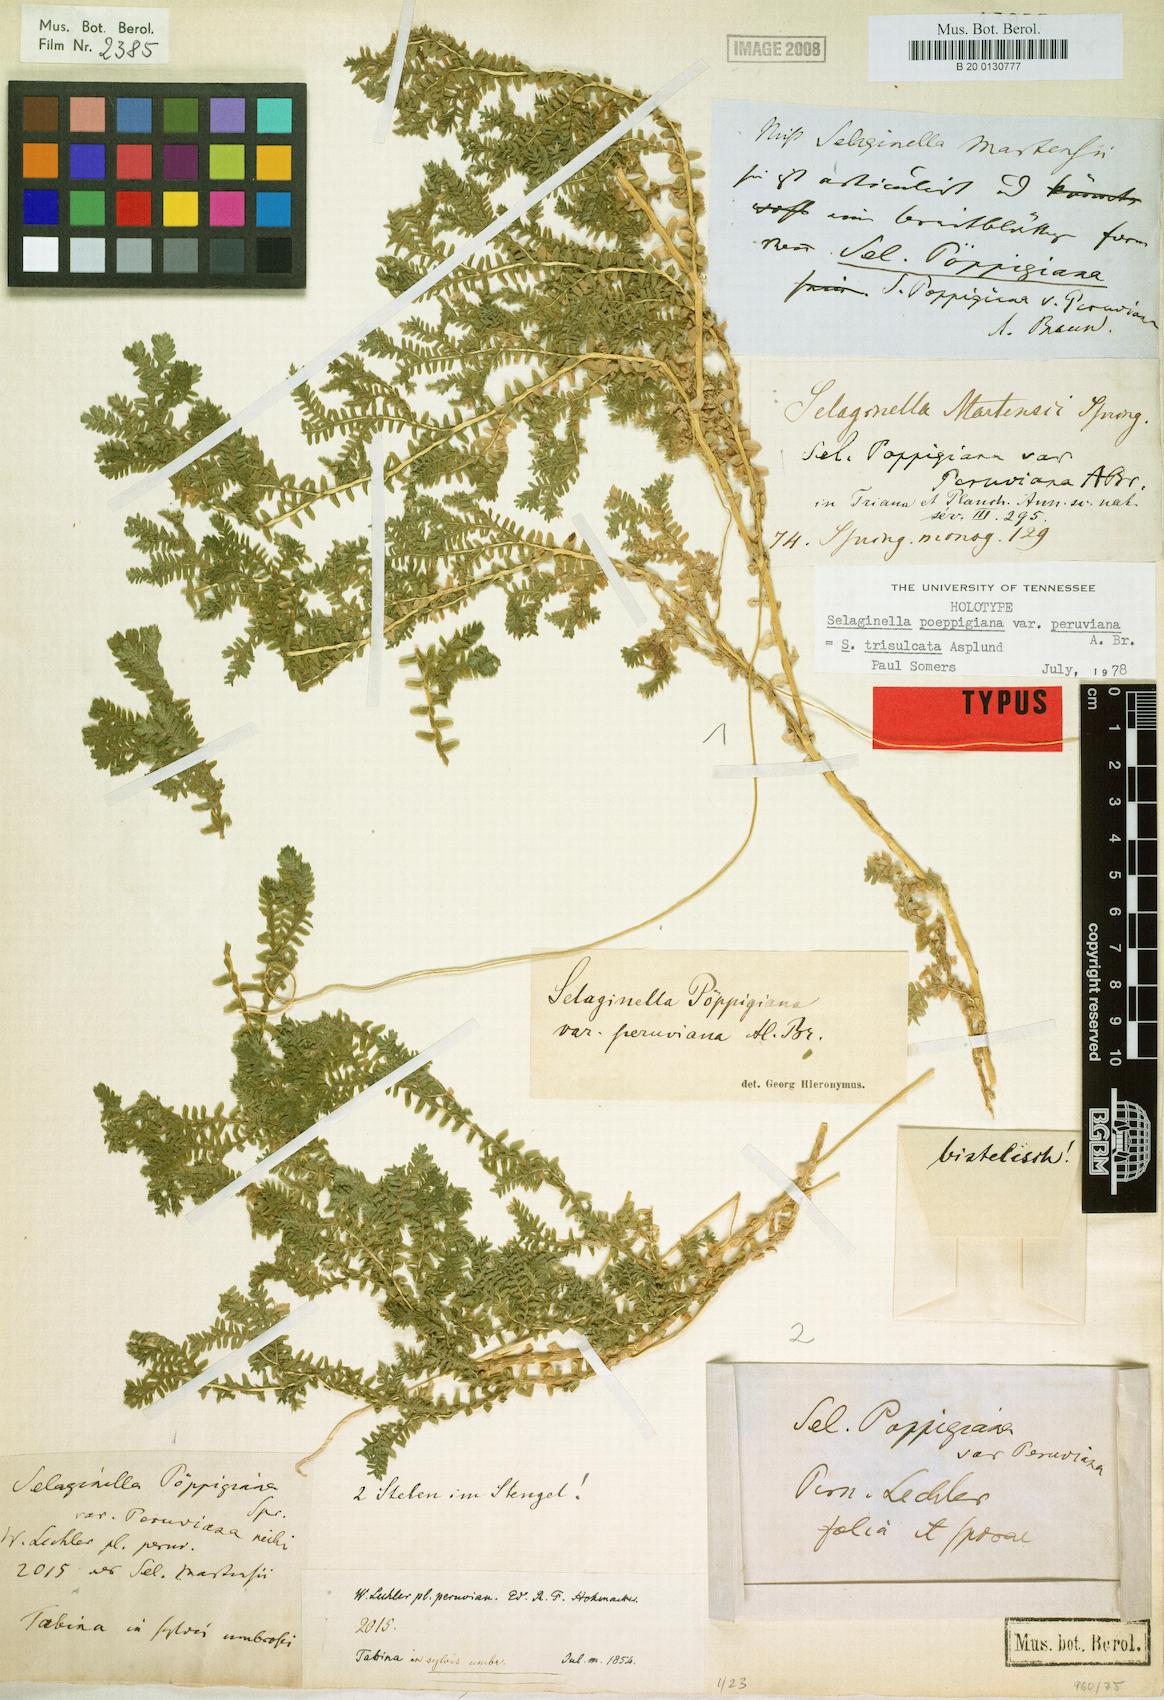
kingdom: Plantae
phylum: Tracheophyta
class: Lycopodiopsida
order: Selaginellales
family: Selaginellaceae
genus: Selaginella
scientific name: Selaginella trisulcata
